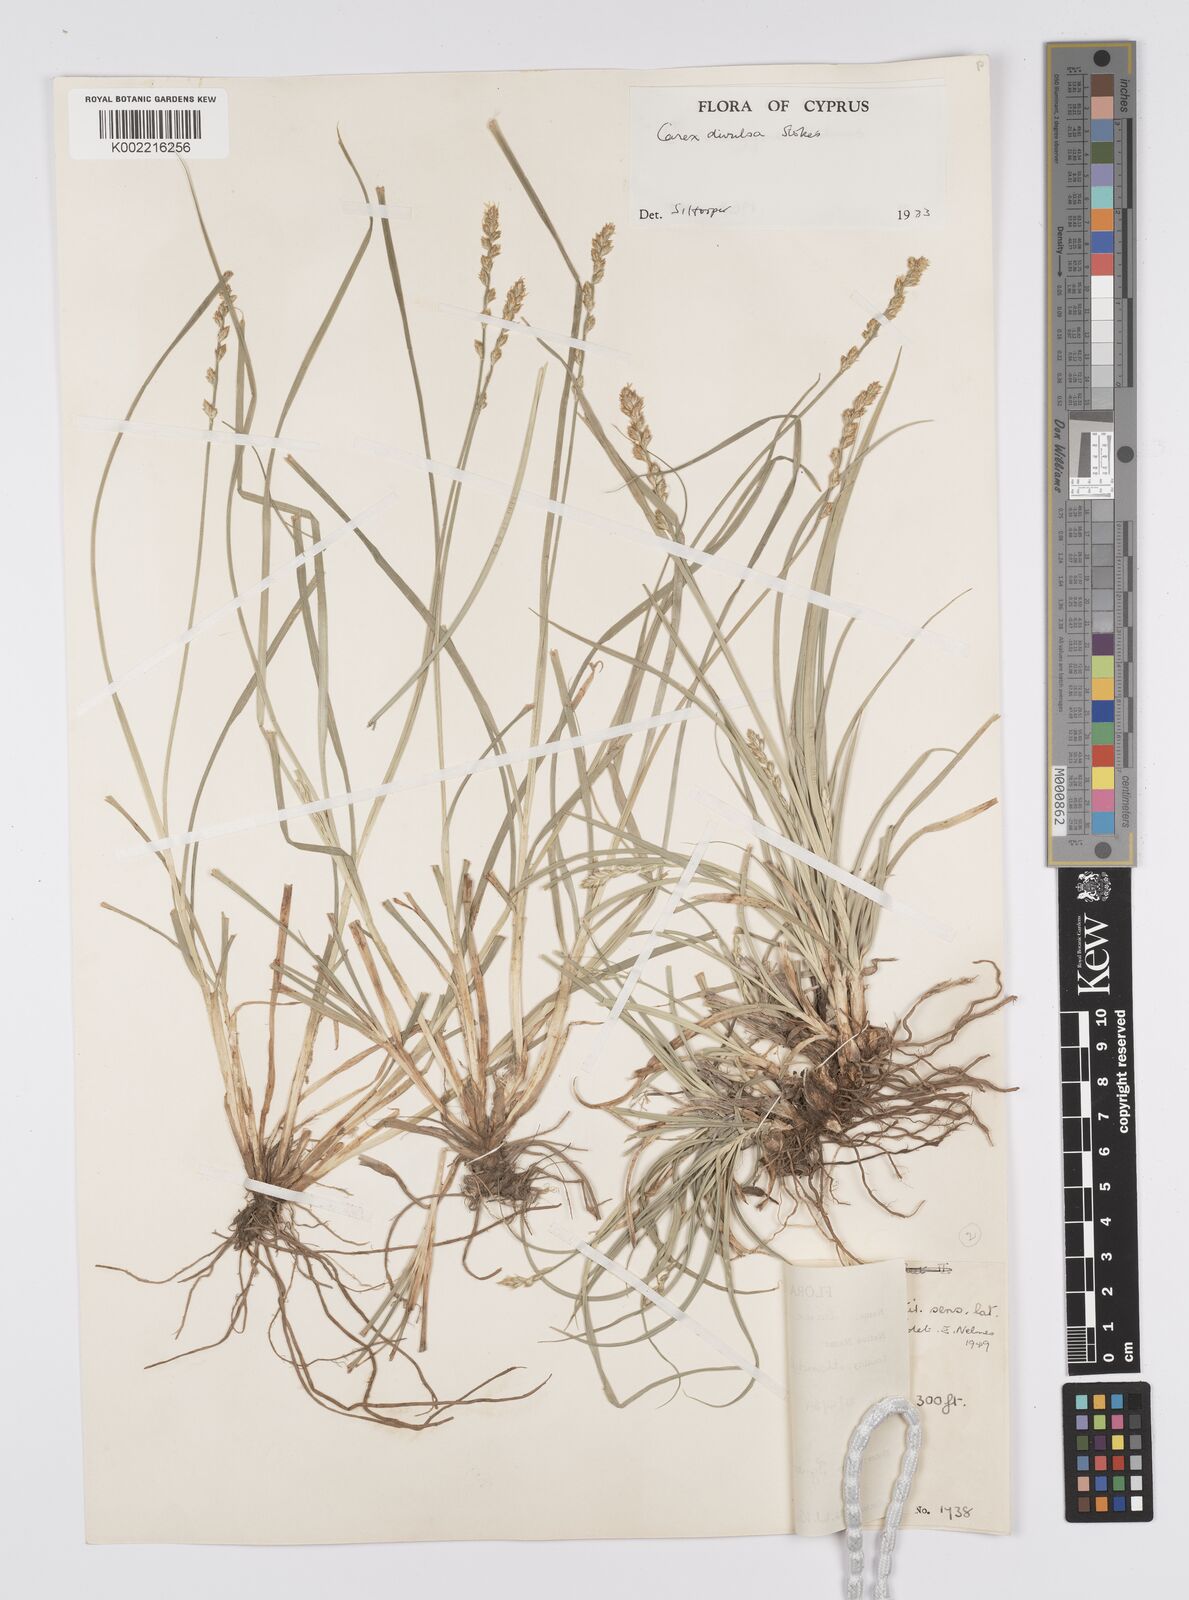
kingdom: Plantae
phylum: Tracheophyta
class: Liliopsida
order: Poales
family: Cyperaceae
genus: Carex
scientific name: Carex divulsa
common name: Grassland sedge
